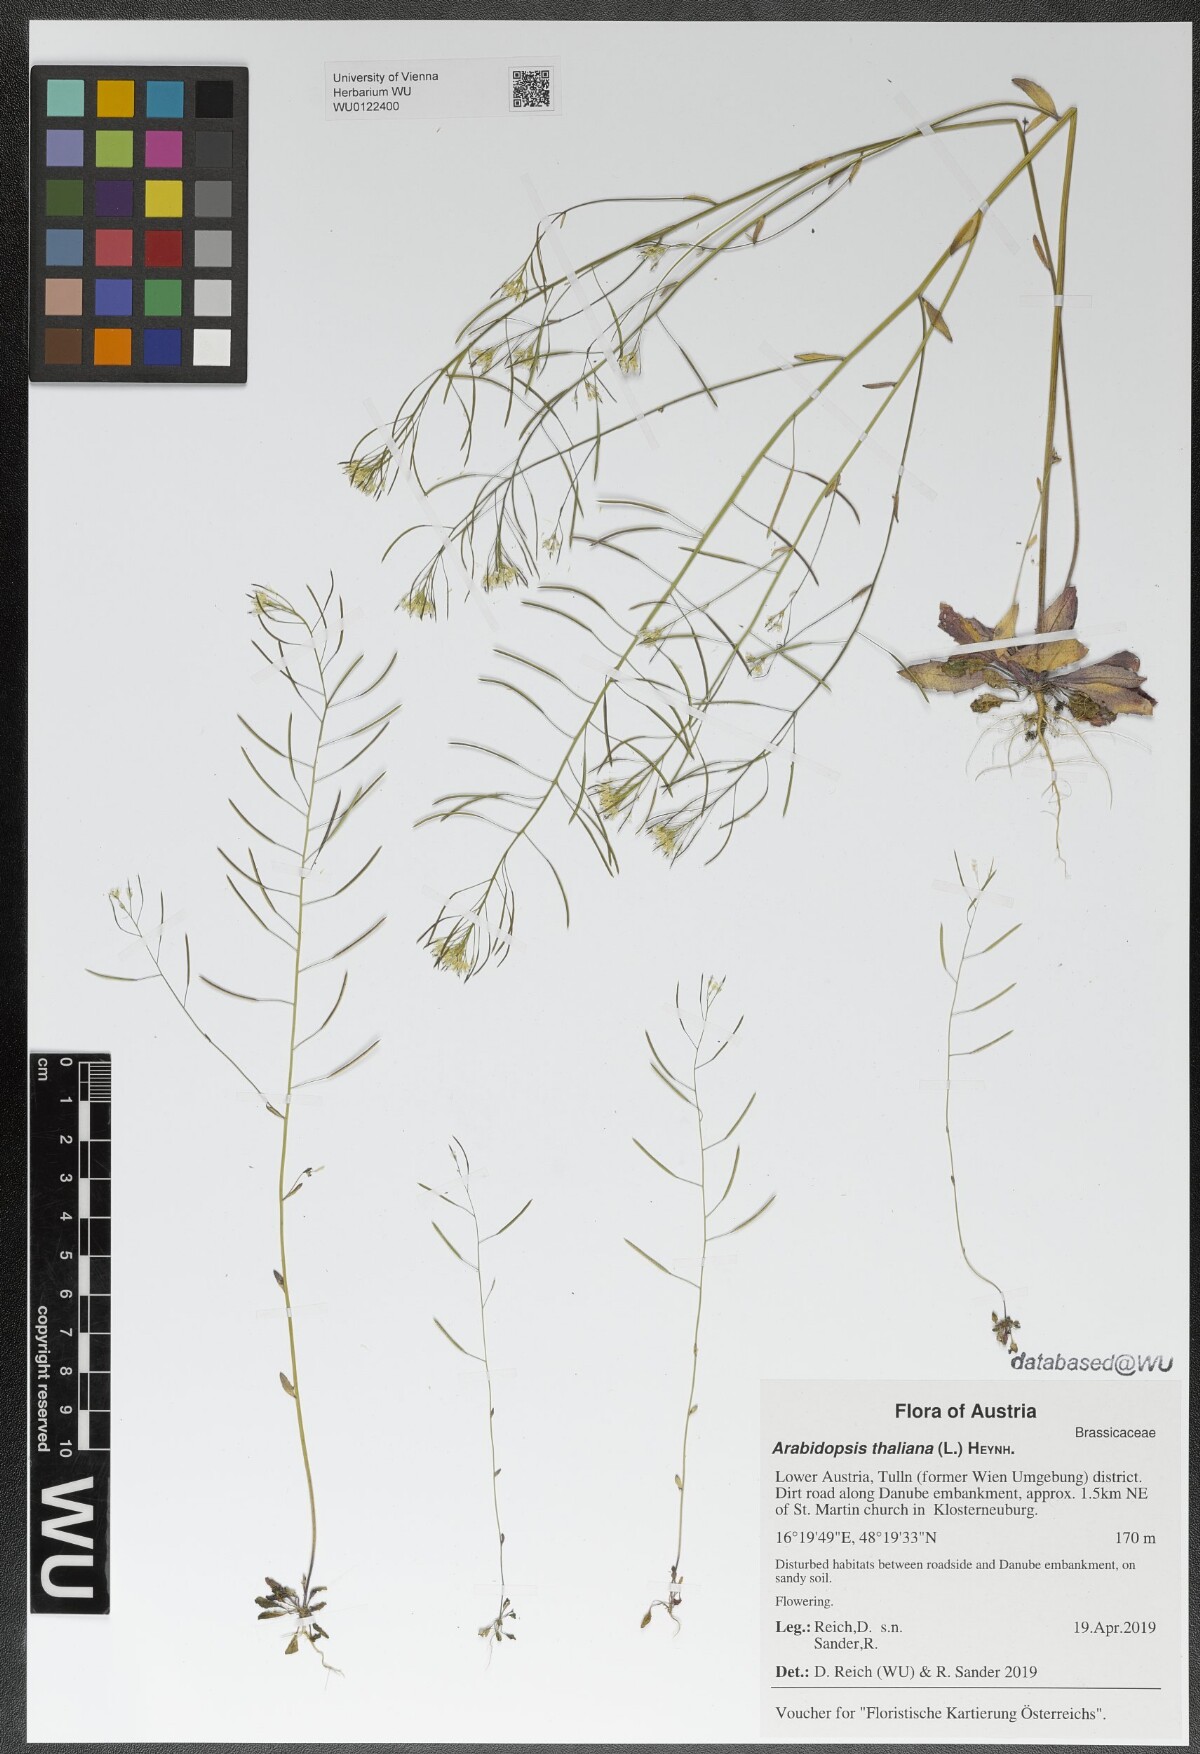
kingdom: Plantae
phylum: Tracheophyta
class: Magnoliopsida
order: Brassicales
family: Brassicaceae
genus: Arabidopsis
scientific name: Arabidopsis thaliana
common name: Thale cress
